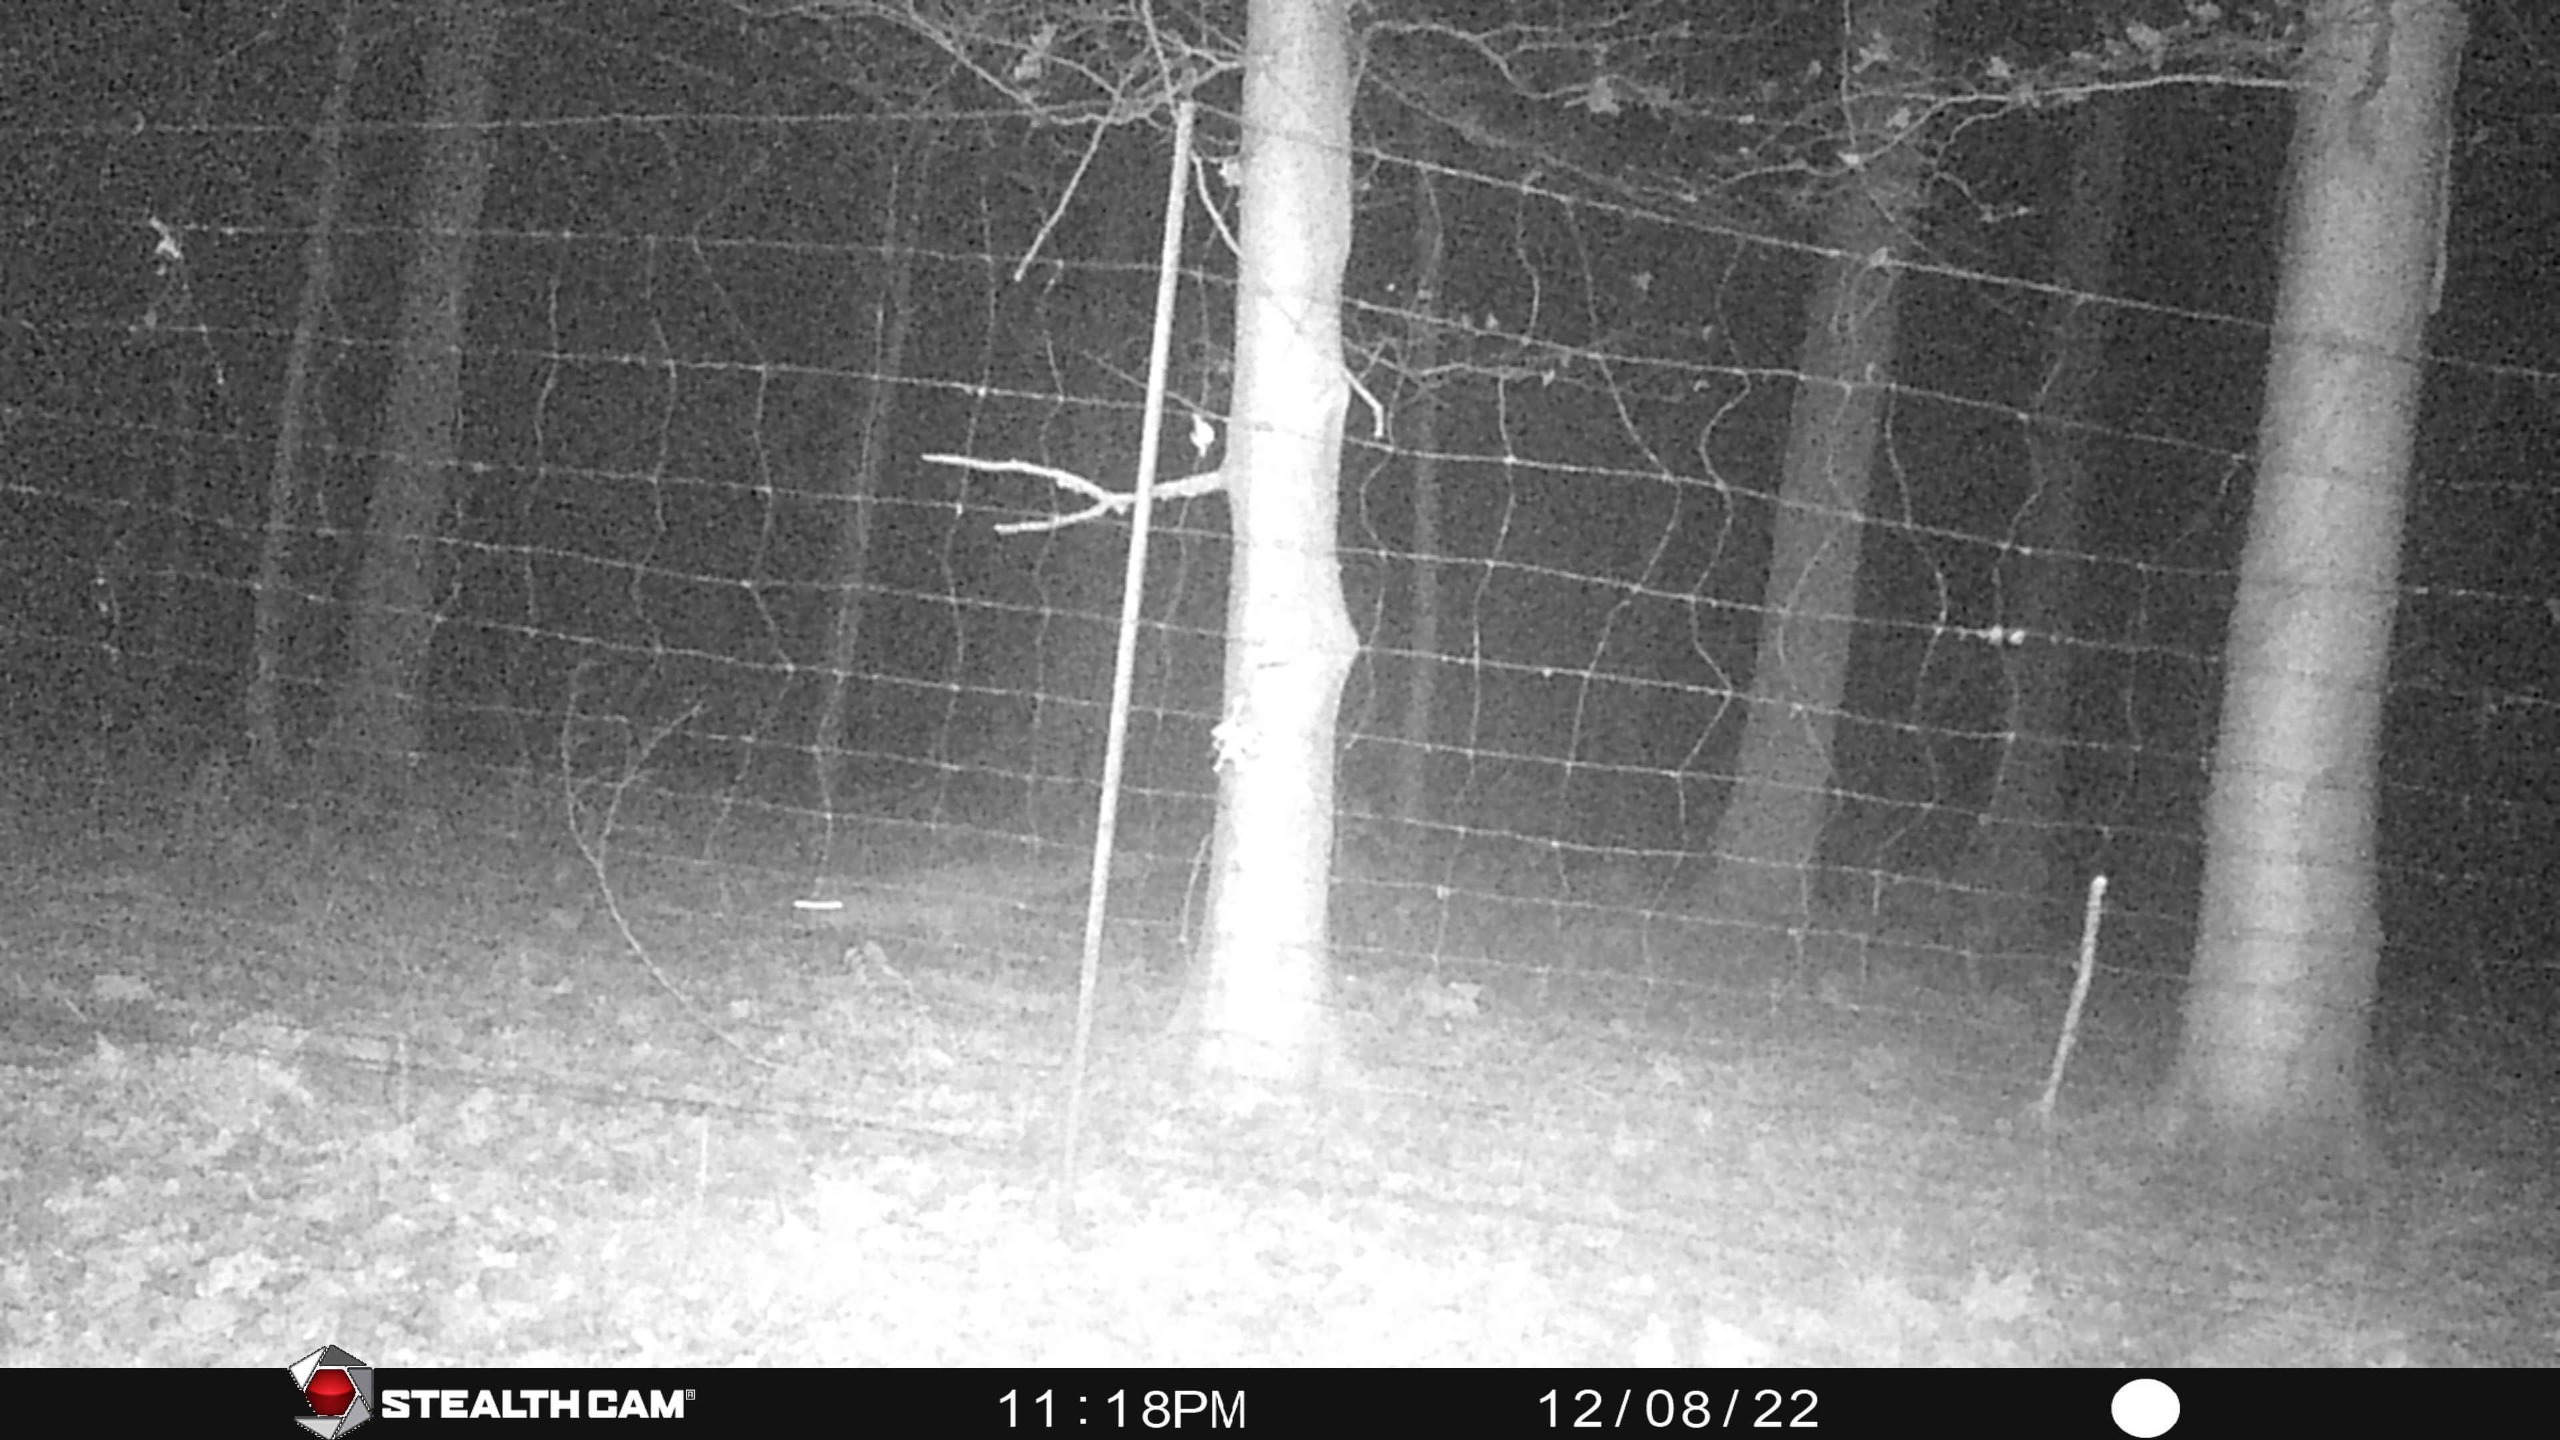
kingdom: Animalia
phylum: Chordata
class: Mammalia
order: Carnivora
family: Canidae
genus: Vulpes
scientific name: Vulpes vulpes
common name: Ræv
